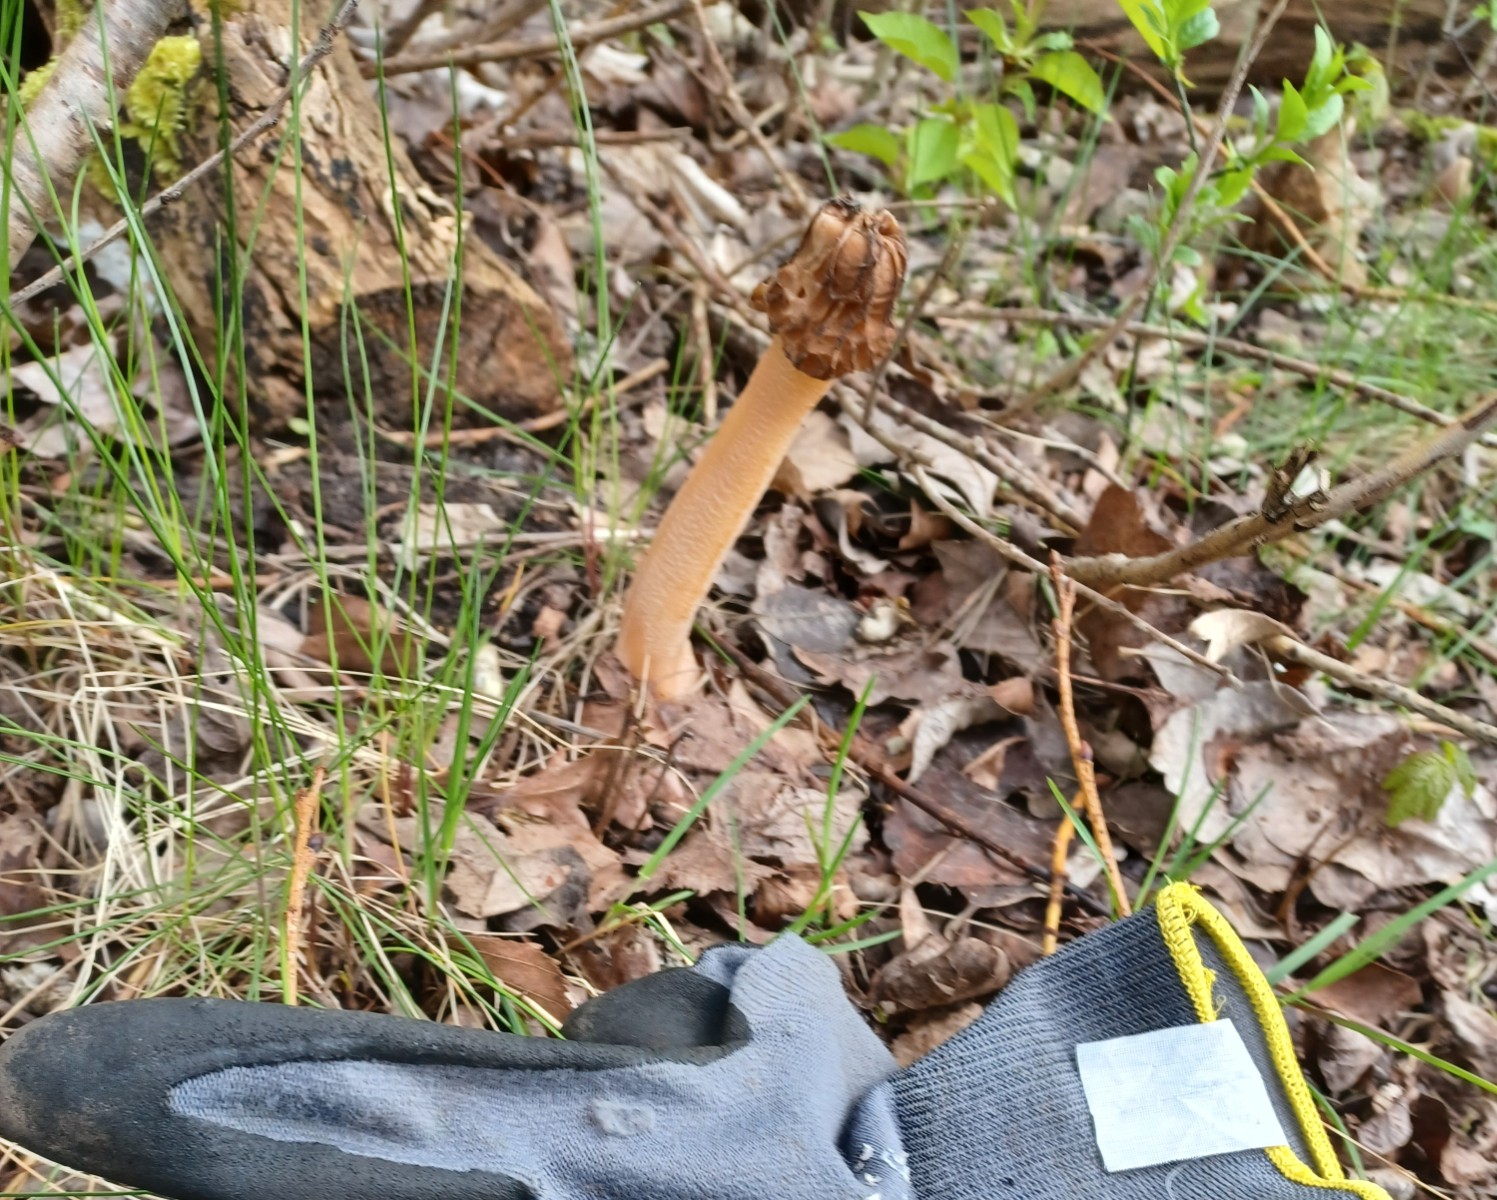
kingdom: Fungi
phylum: Ascomycota
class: Pezizomycetes
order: Pezizales
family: Morchellaceae
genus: Verpa
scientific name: Verpa bohemica
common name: rynket klokkemorkel
